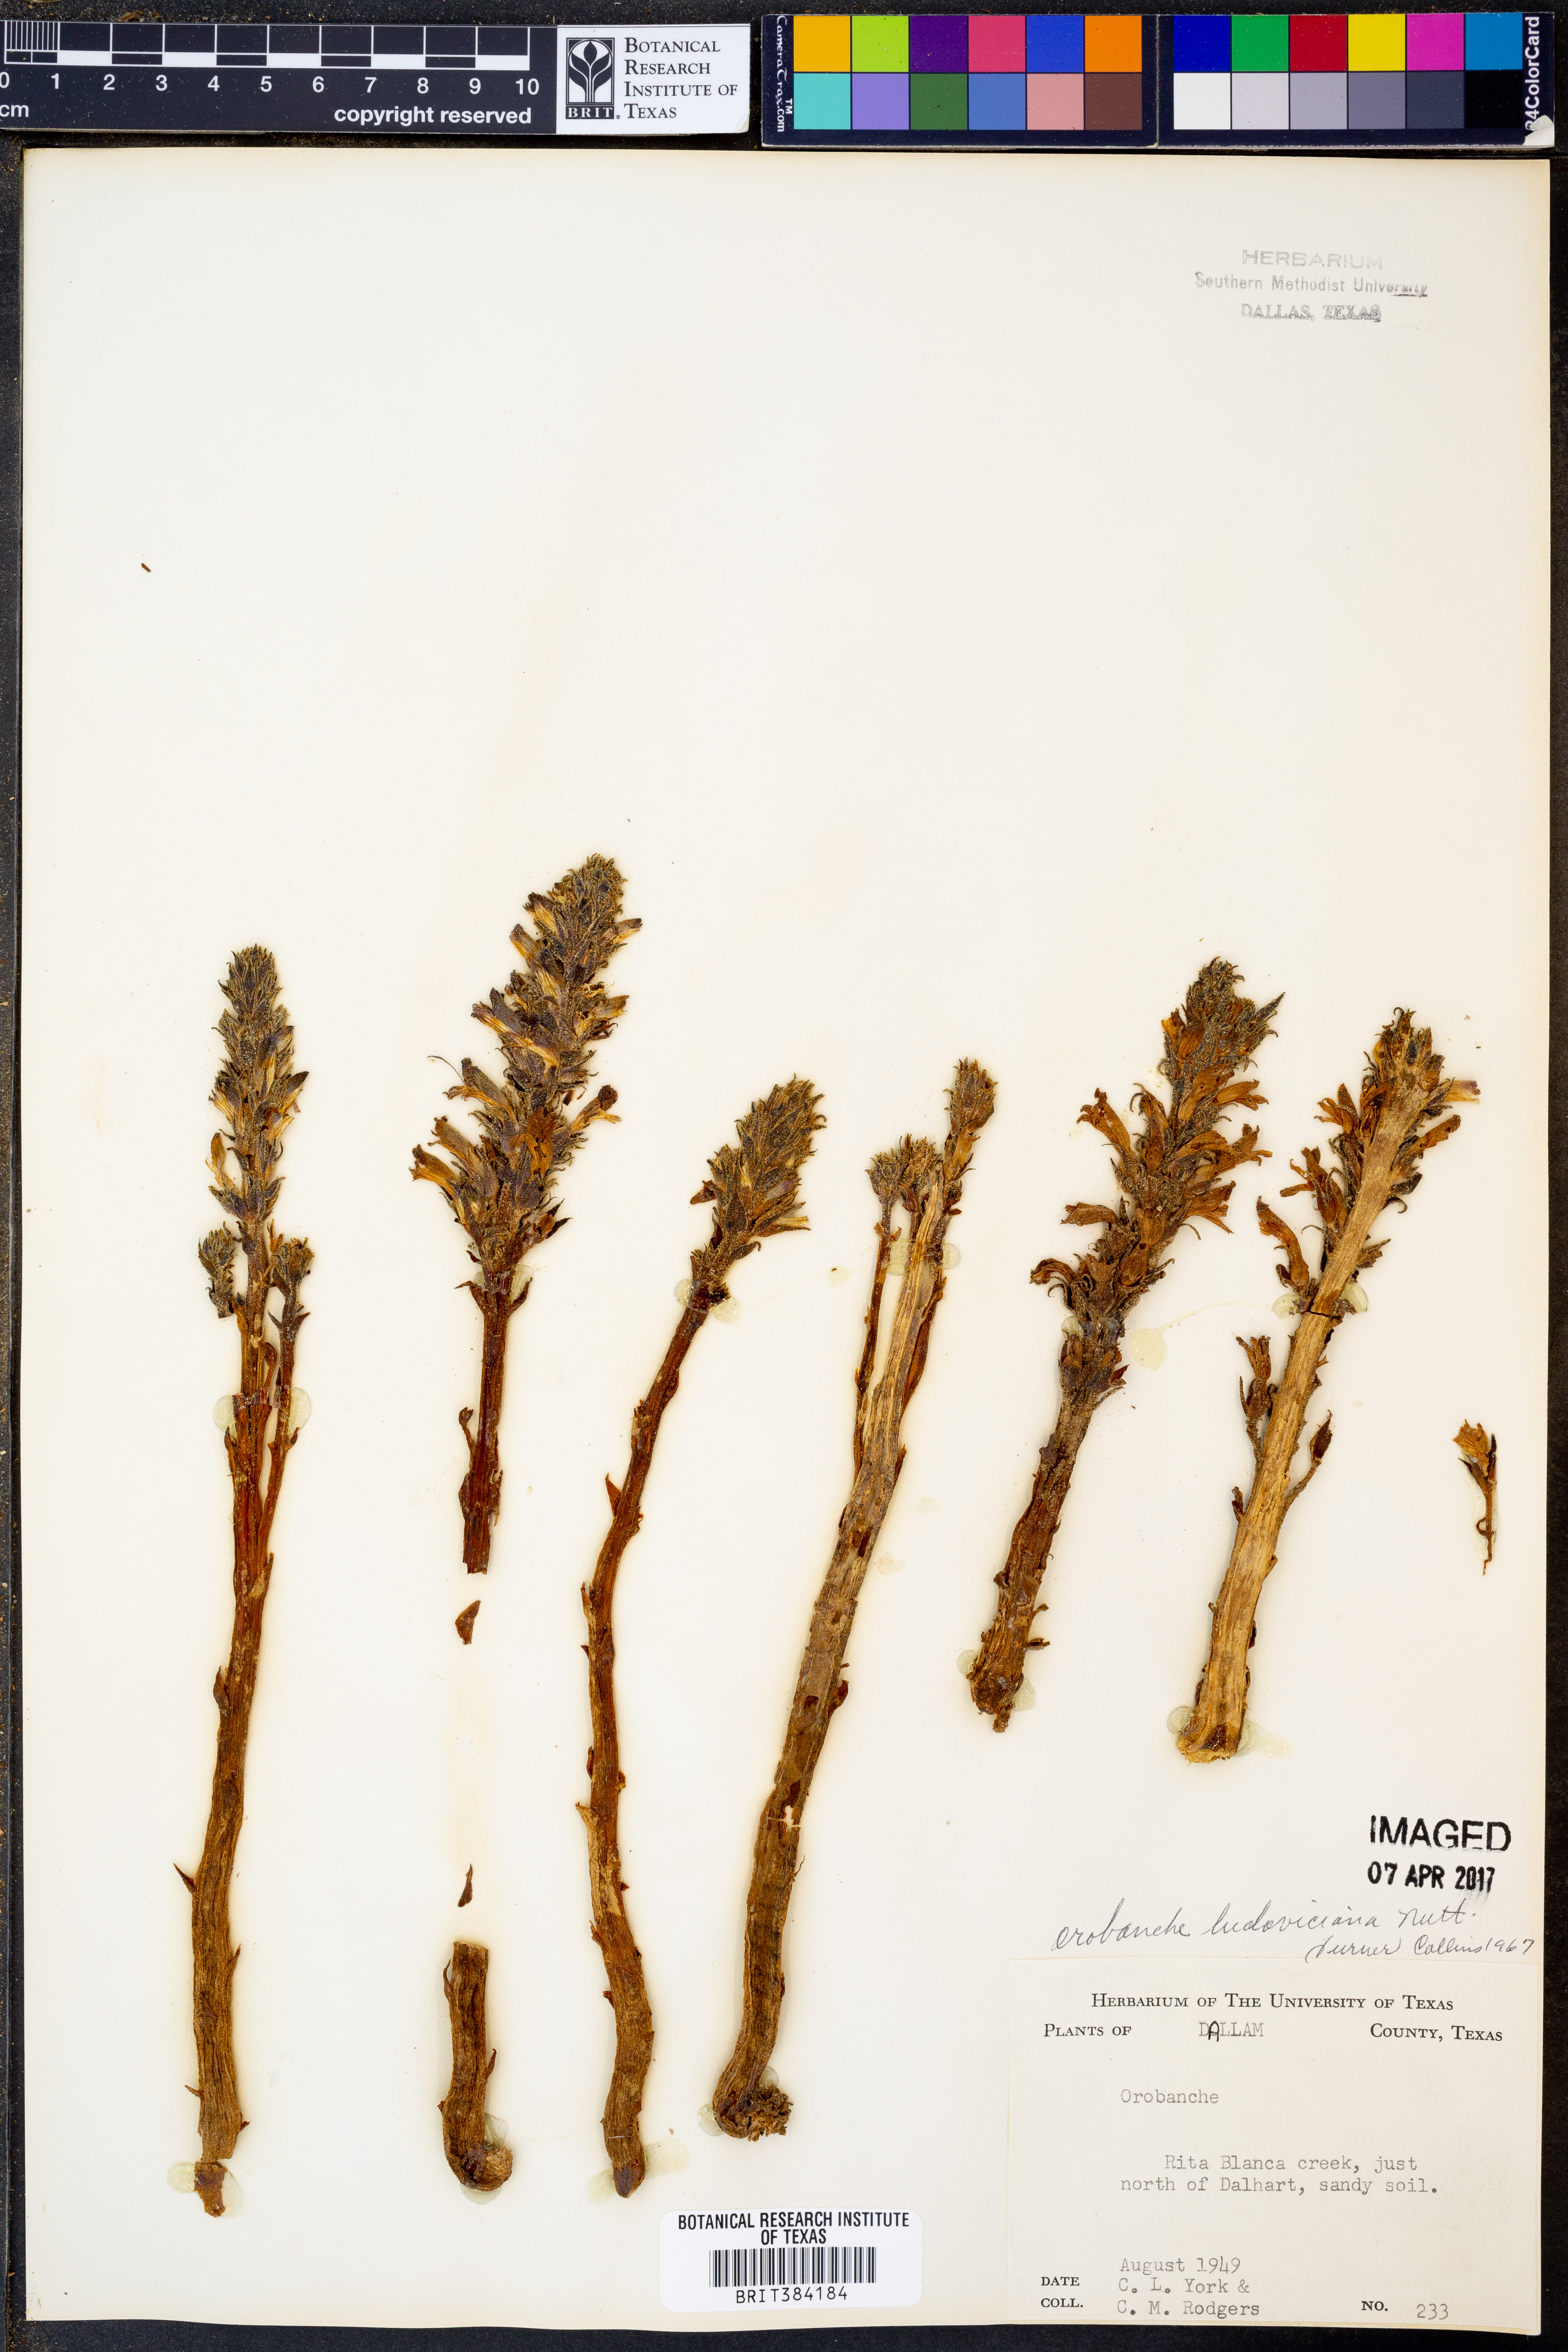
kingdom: Plantae
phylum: Tracheophyta
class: Magnoliopsida
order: Lamiales
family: Orobanchaceae
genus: Aphyllon
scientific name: Aphyllon ludovicianum
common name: Louisiana broomrape
